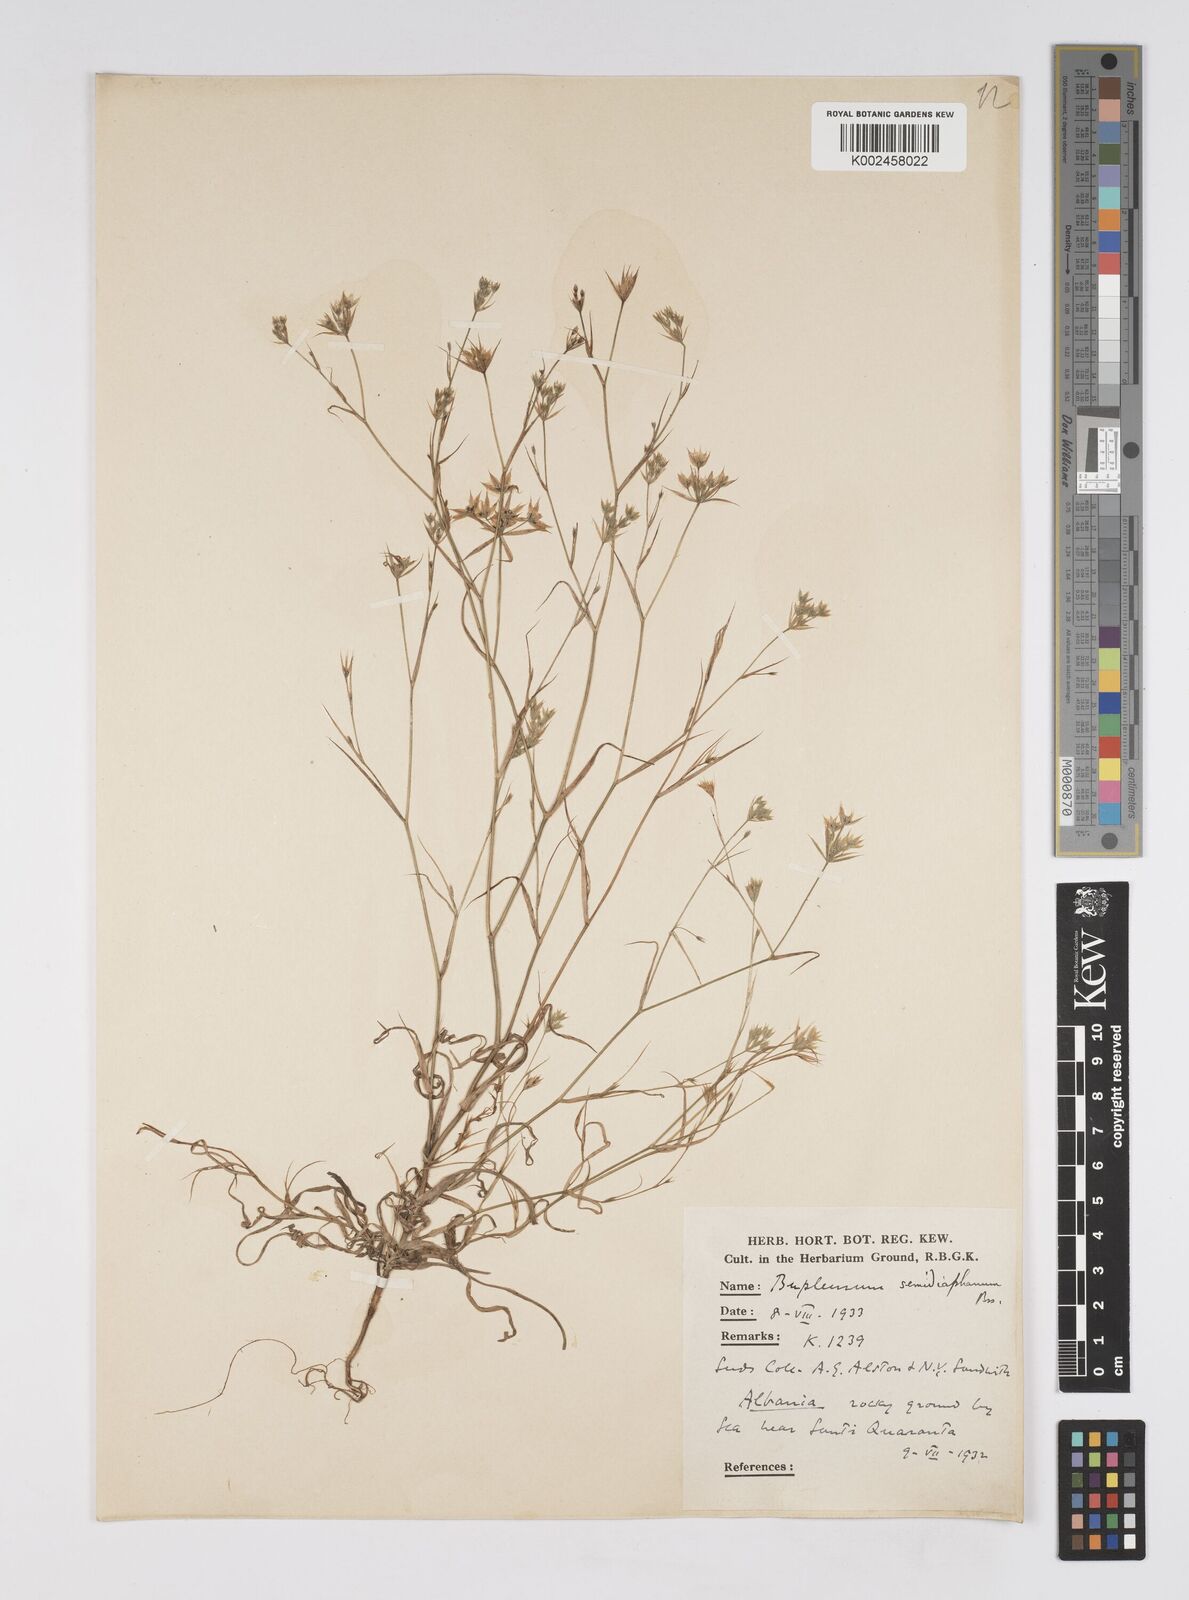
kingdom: Plantae
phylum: Tracheophyta
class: Magnoliopsida
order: Apiales
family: Apiaceae
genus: Bupleurum
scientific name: Bupleurum glumaceum
